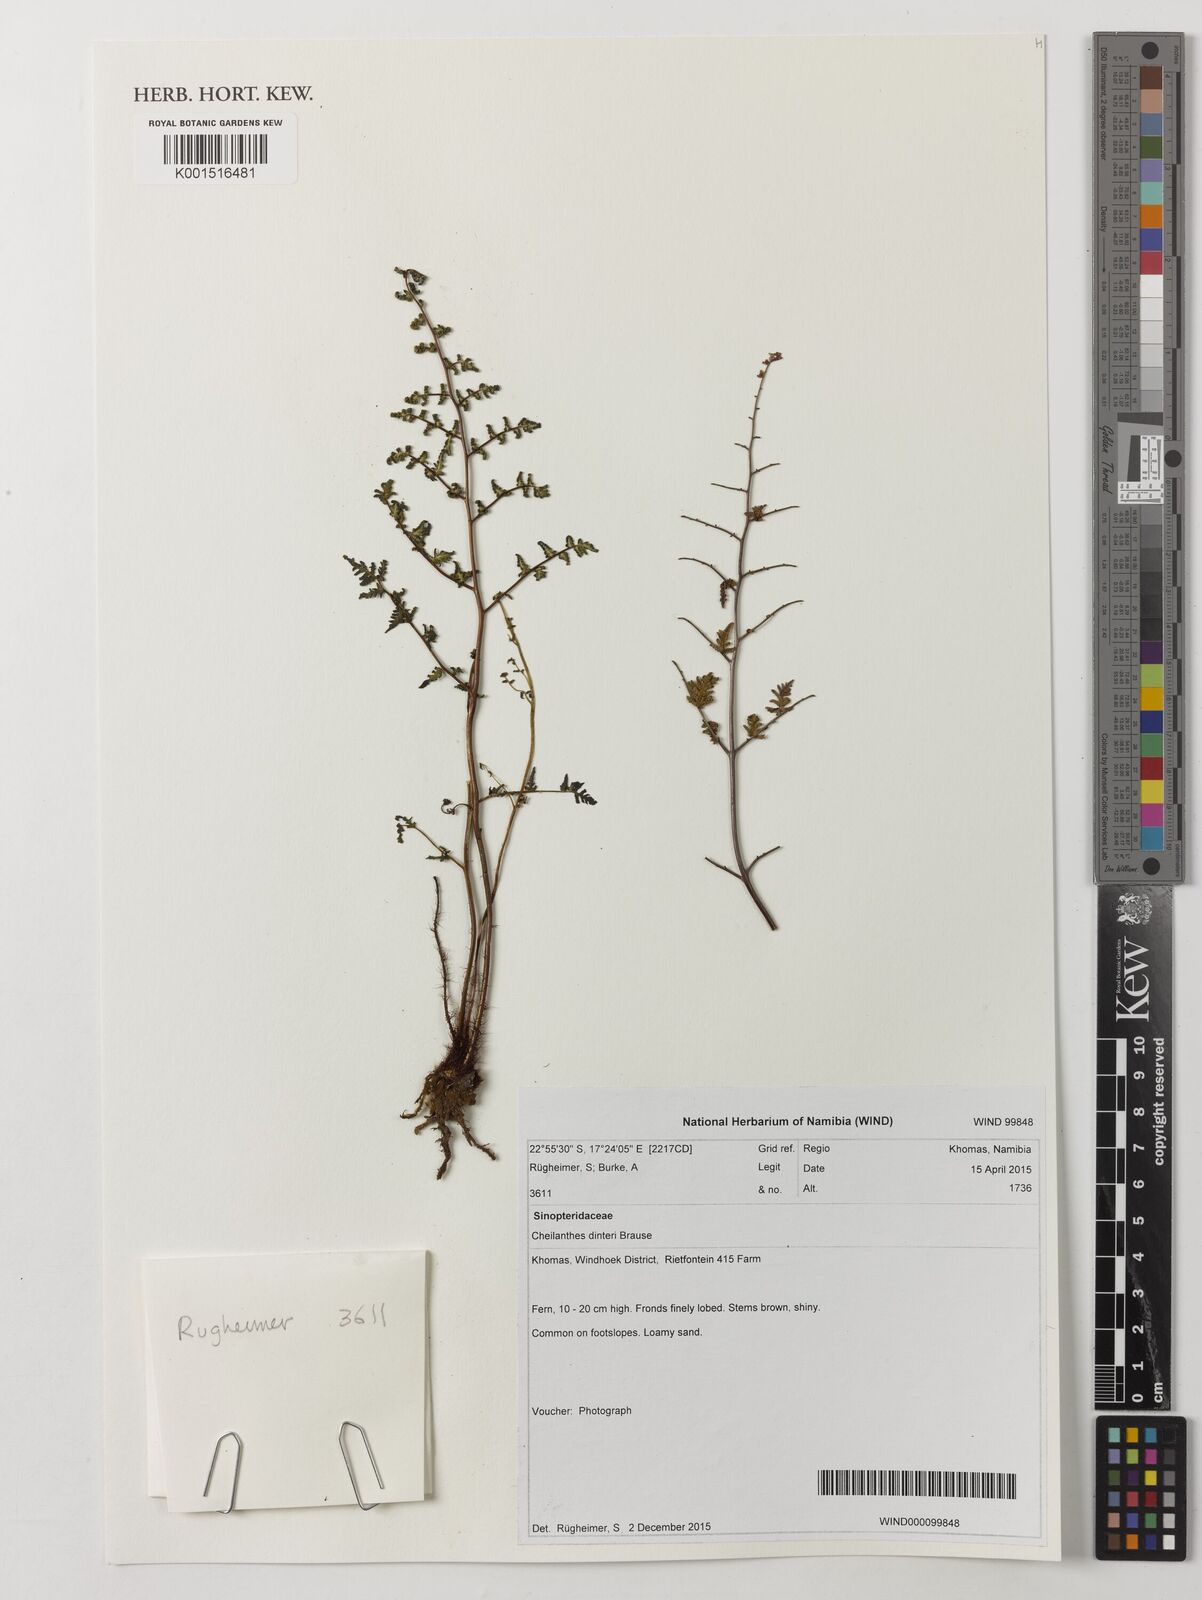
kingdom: Plantae
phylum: Tracheophyta
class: Polypodiopsida
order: Polypodiales
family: Pteridaceae
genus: Cheilanthes
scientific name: Cheilanthes dinteri
